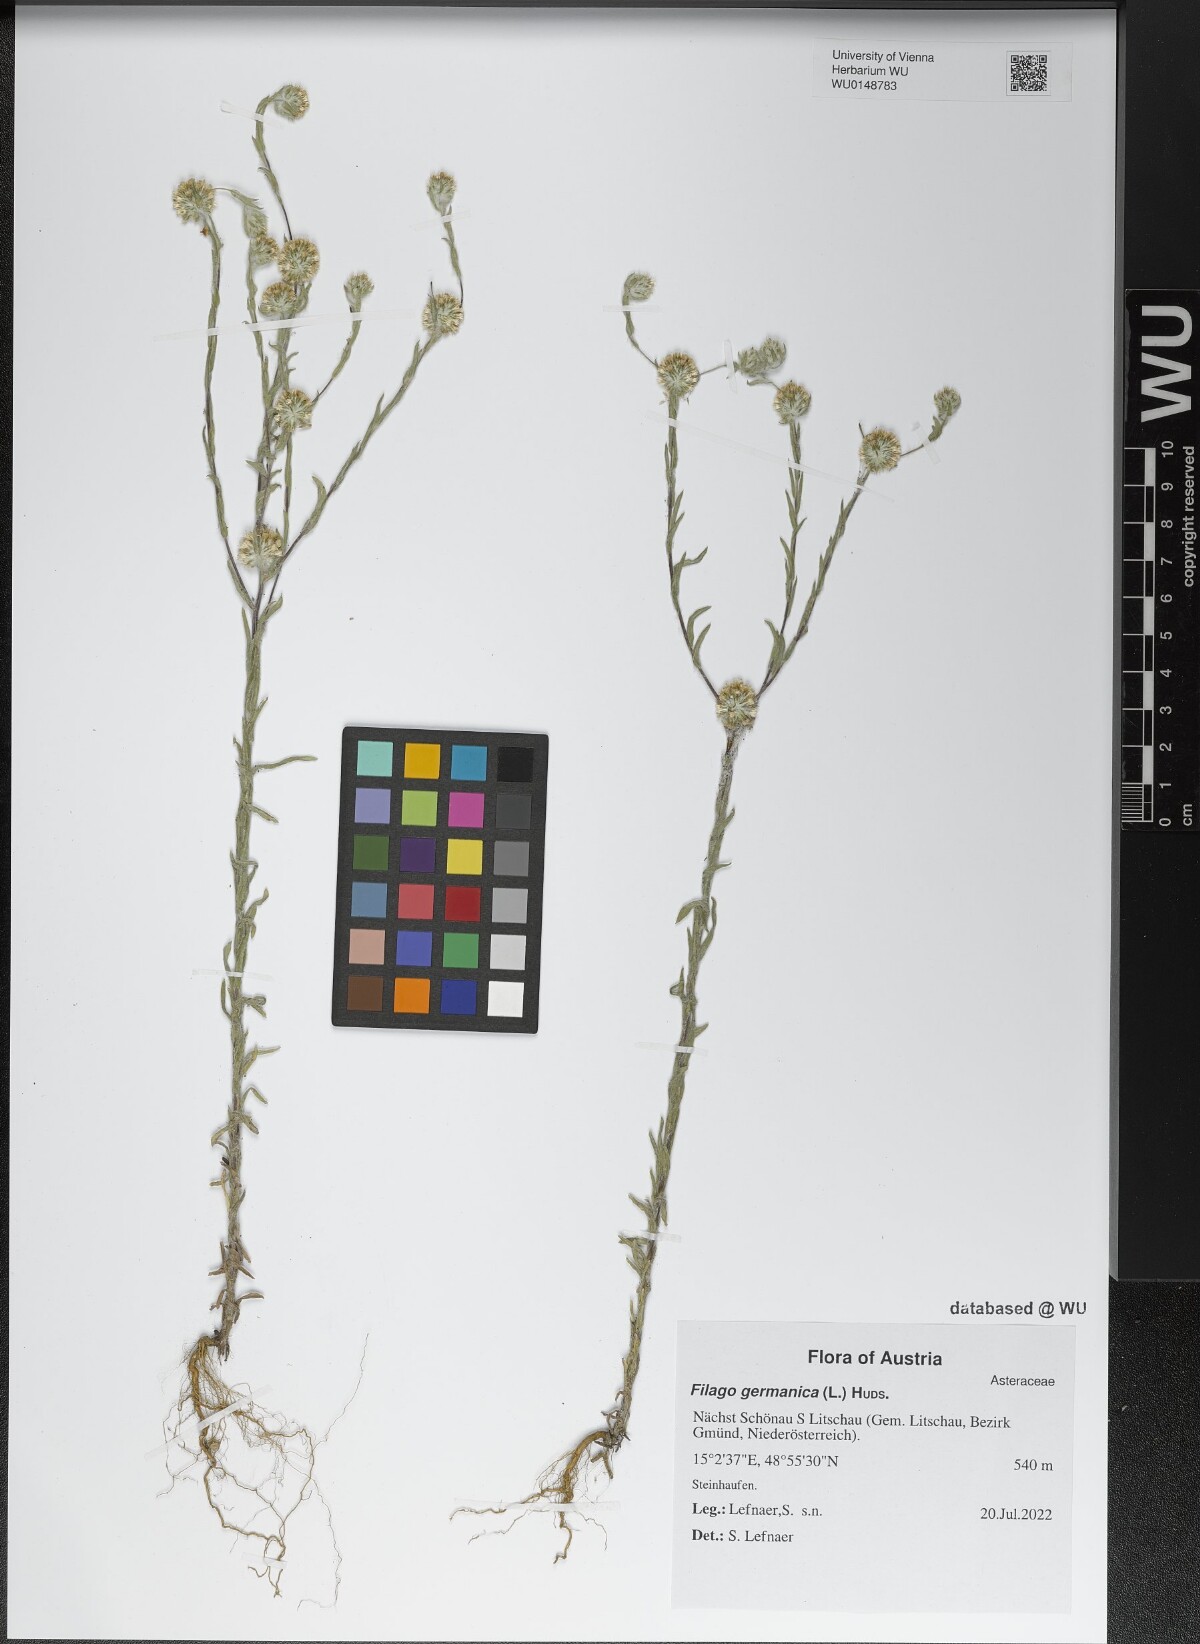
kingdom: Plantae
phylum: Tracheophyta
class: Magnoliopsida
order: Asterales
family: Asteraceae
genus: Filago
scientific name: Filago germanica
